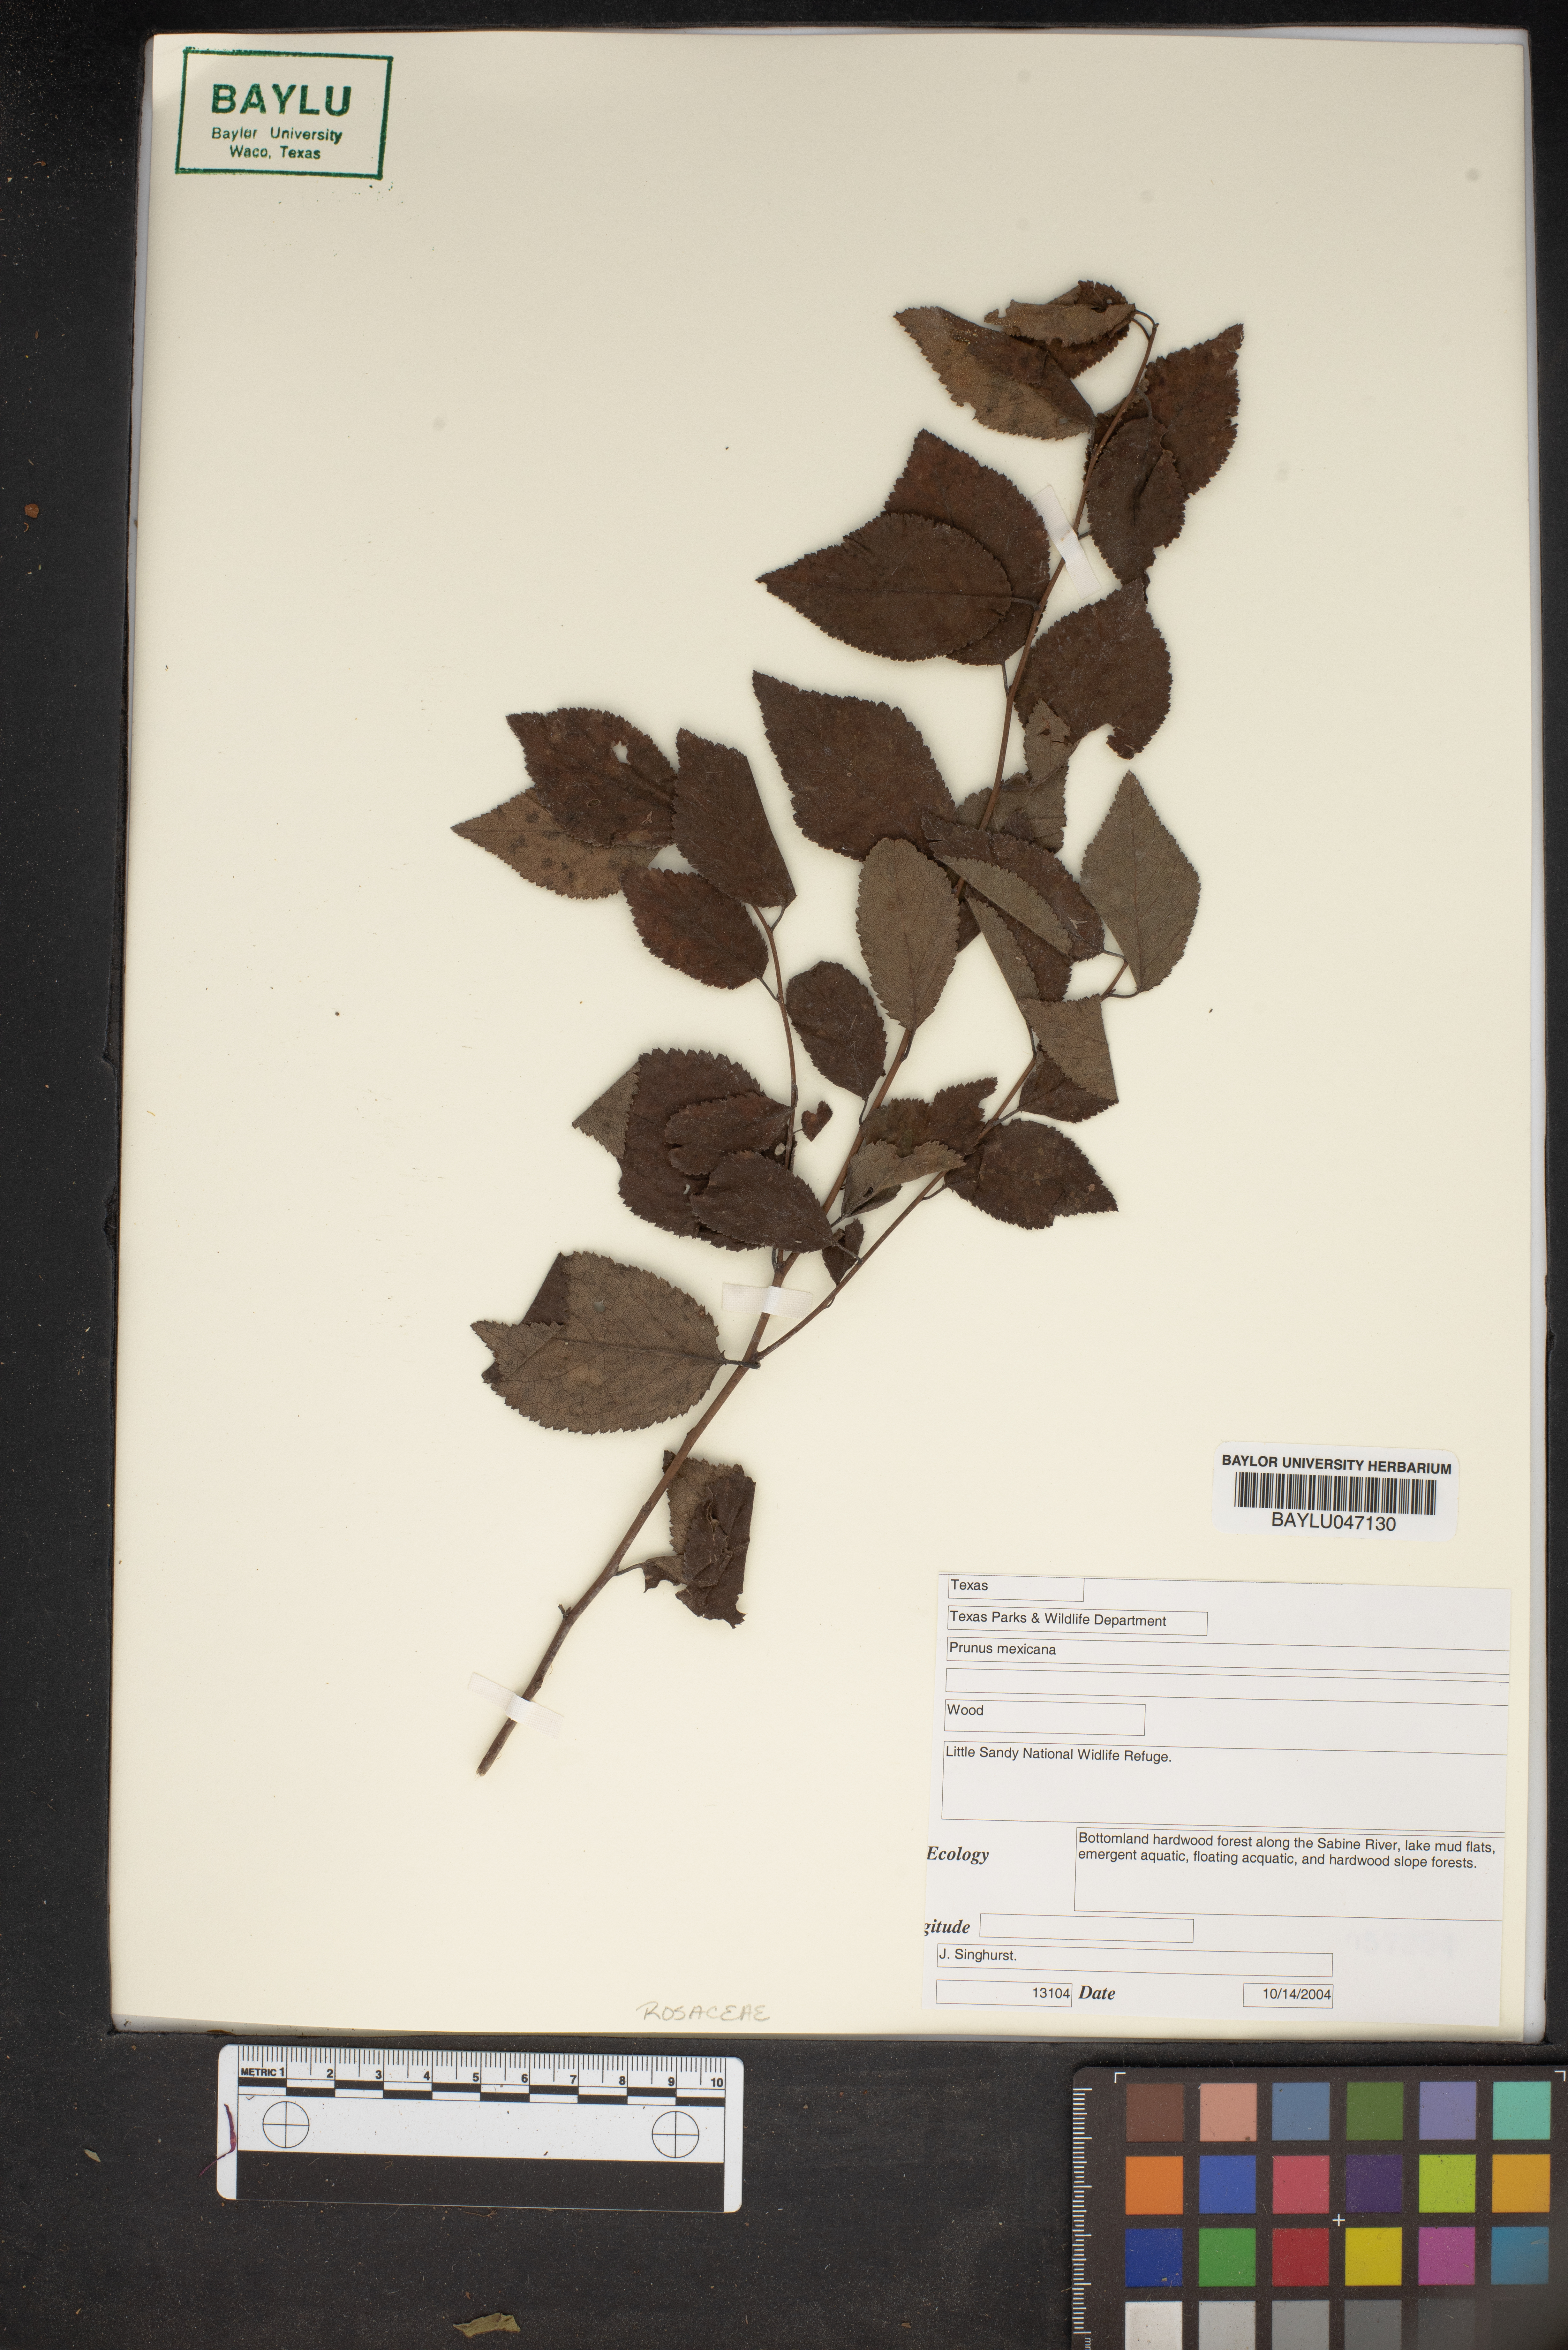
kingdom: Plantae
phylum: Tracheophyta
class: Magnoliopsida
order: Rosales
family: Rosaceae
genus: Prunus
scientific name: Prunus mexicana
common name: Mexican plum
